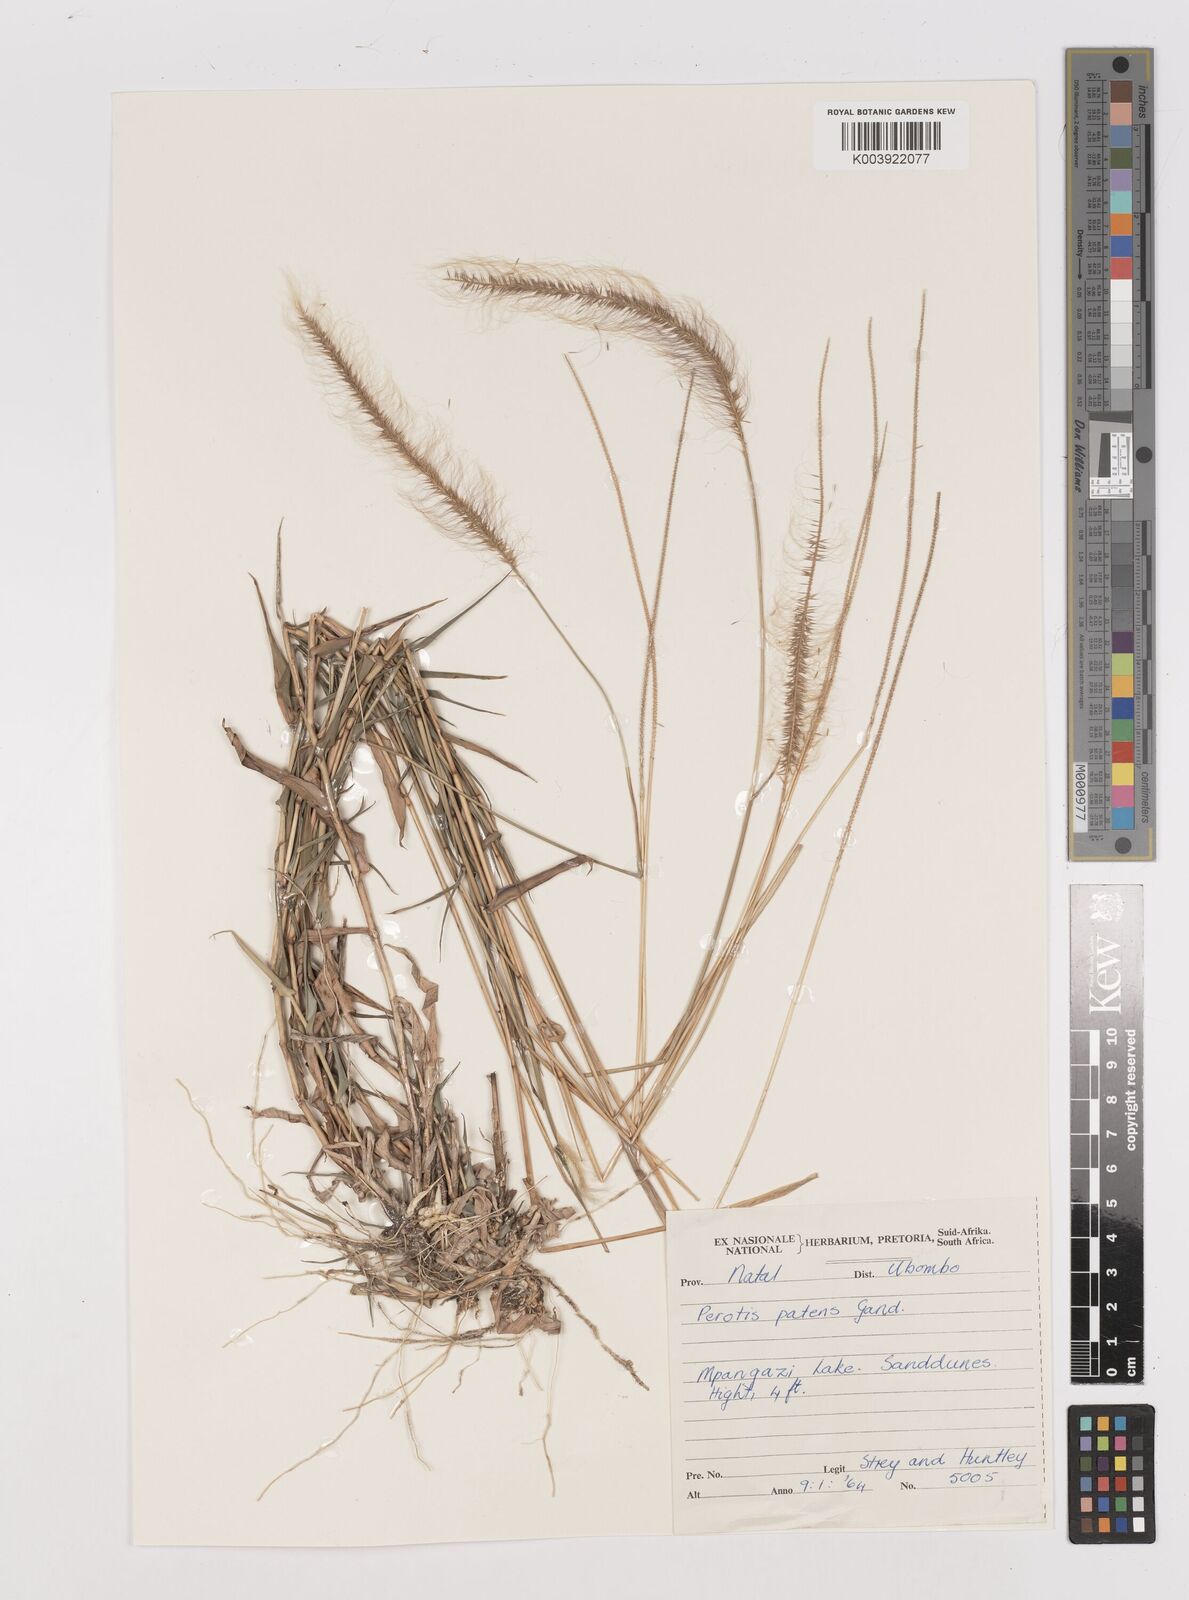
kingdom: Plantae
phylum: Tracheophyta
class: Liliopsida
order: Poales
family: Poaceae
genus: Perotis
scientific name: Perotis patens
